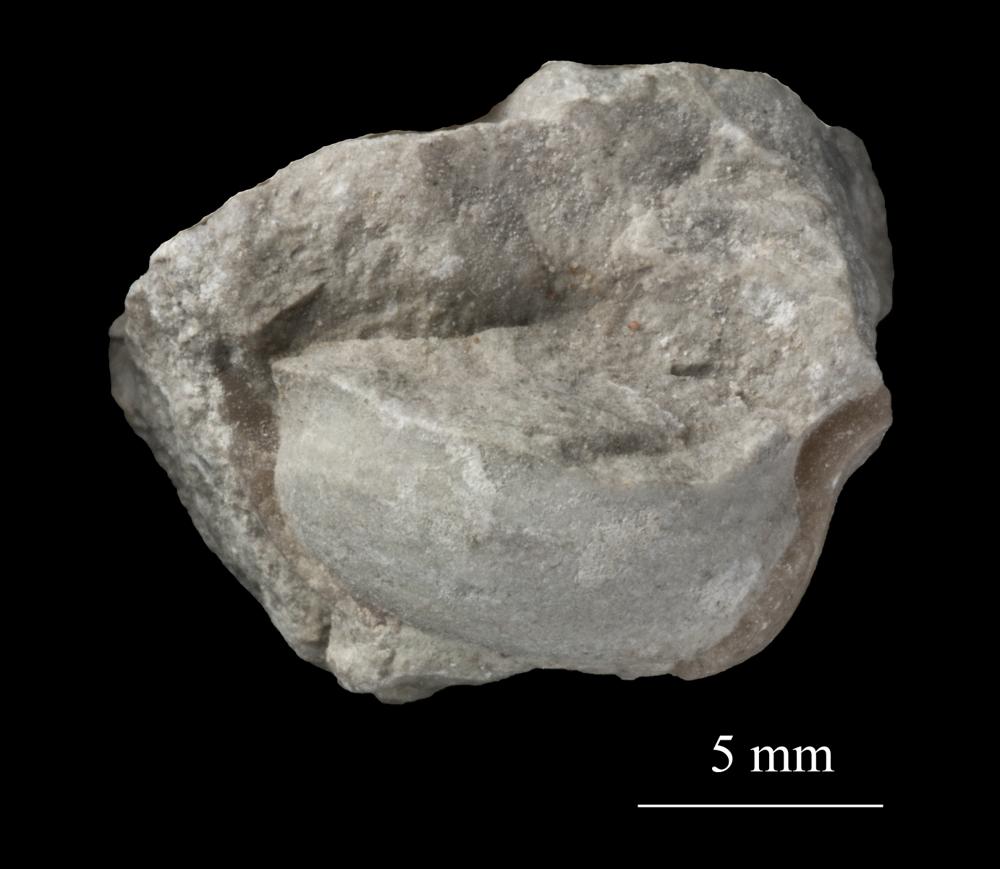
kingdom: Animalia
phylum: Mollusca
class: Gastropoda
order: Pleurotomariida
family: Phymatopleuridae
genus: Worthenia
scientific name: Worthenia
